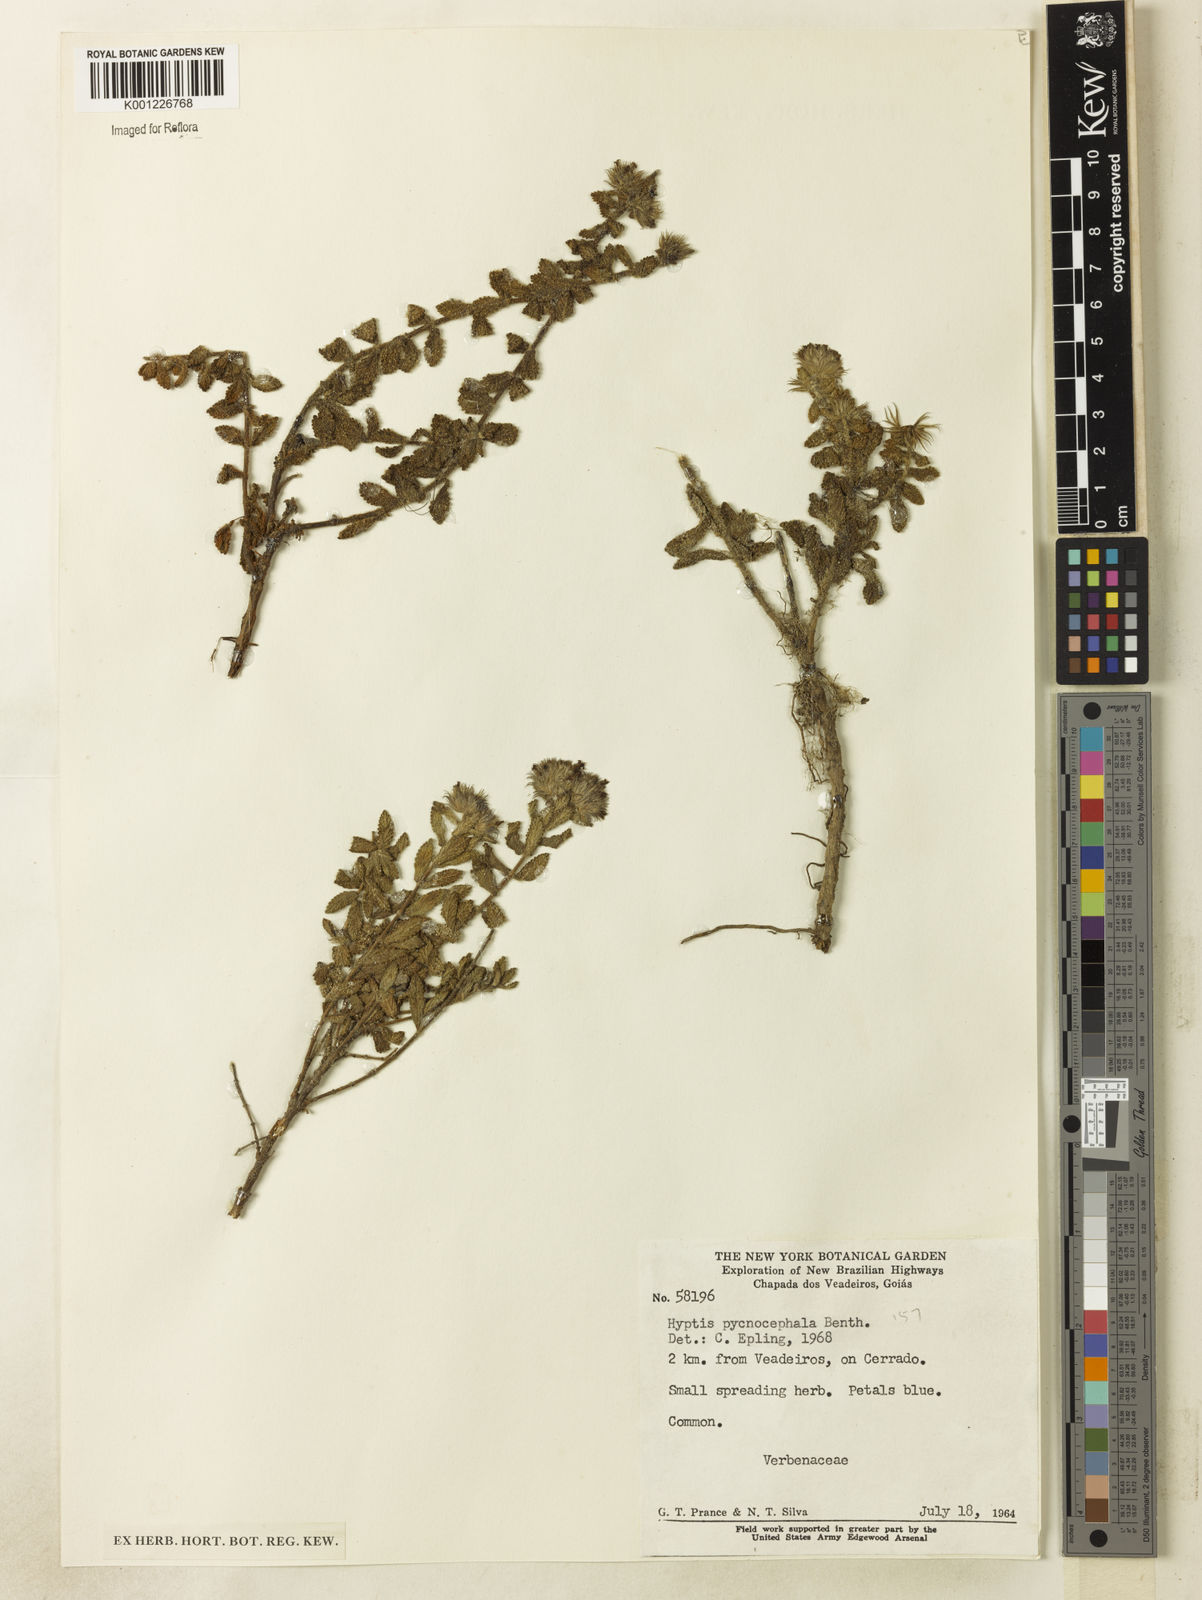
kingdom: Plantae
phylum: Tracheophyta
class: Magnoliopsida
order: Lamiales
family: Lamiaceae
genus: Hyptis
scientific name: Hyptis pycnocephala
